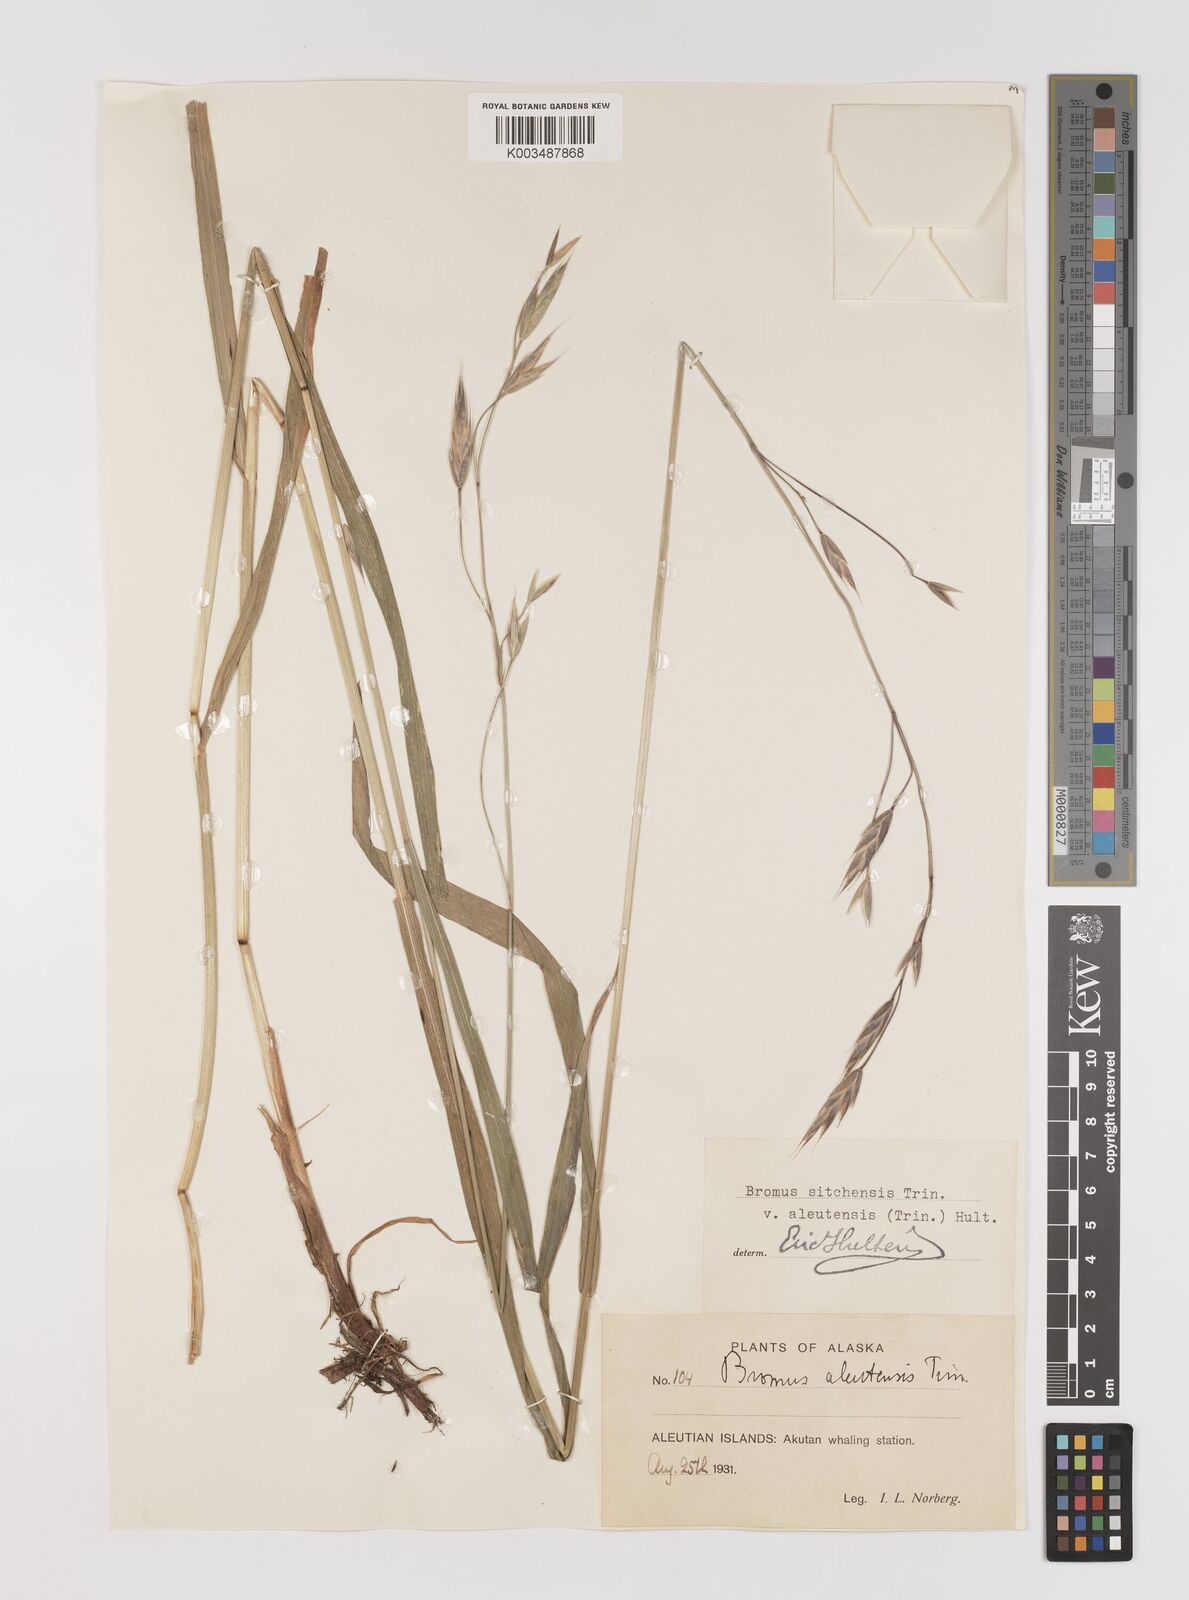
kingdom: Plantae
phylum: Tracheophyta
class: Liliopsida
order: Poales
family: Poaceae
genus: Bromus
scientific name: Bromus sitchensis
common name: Sitka brome
